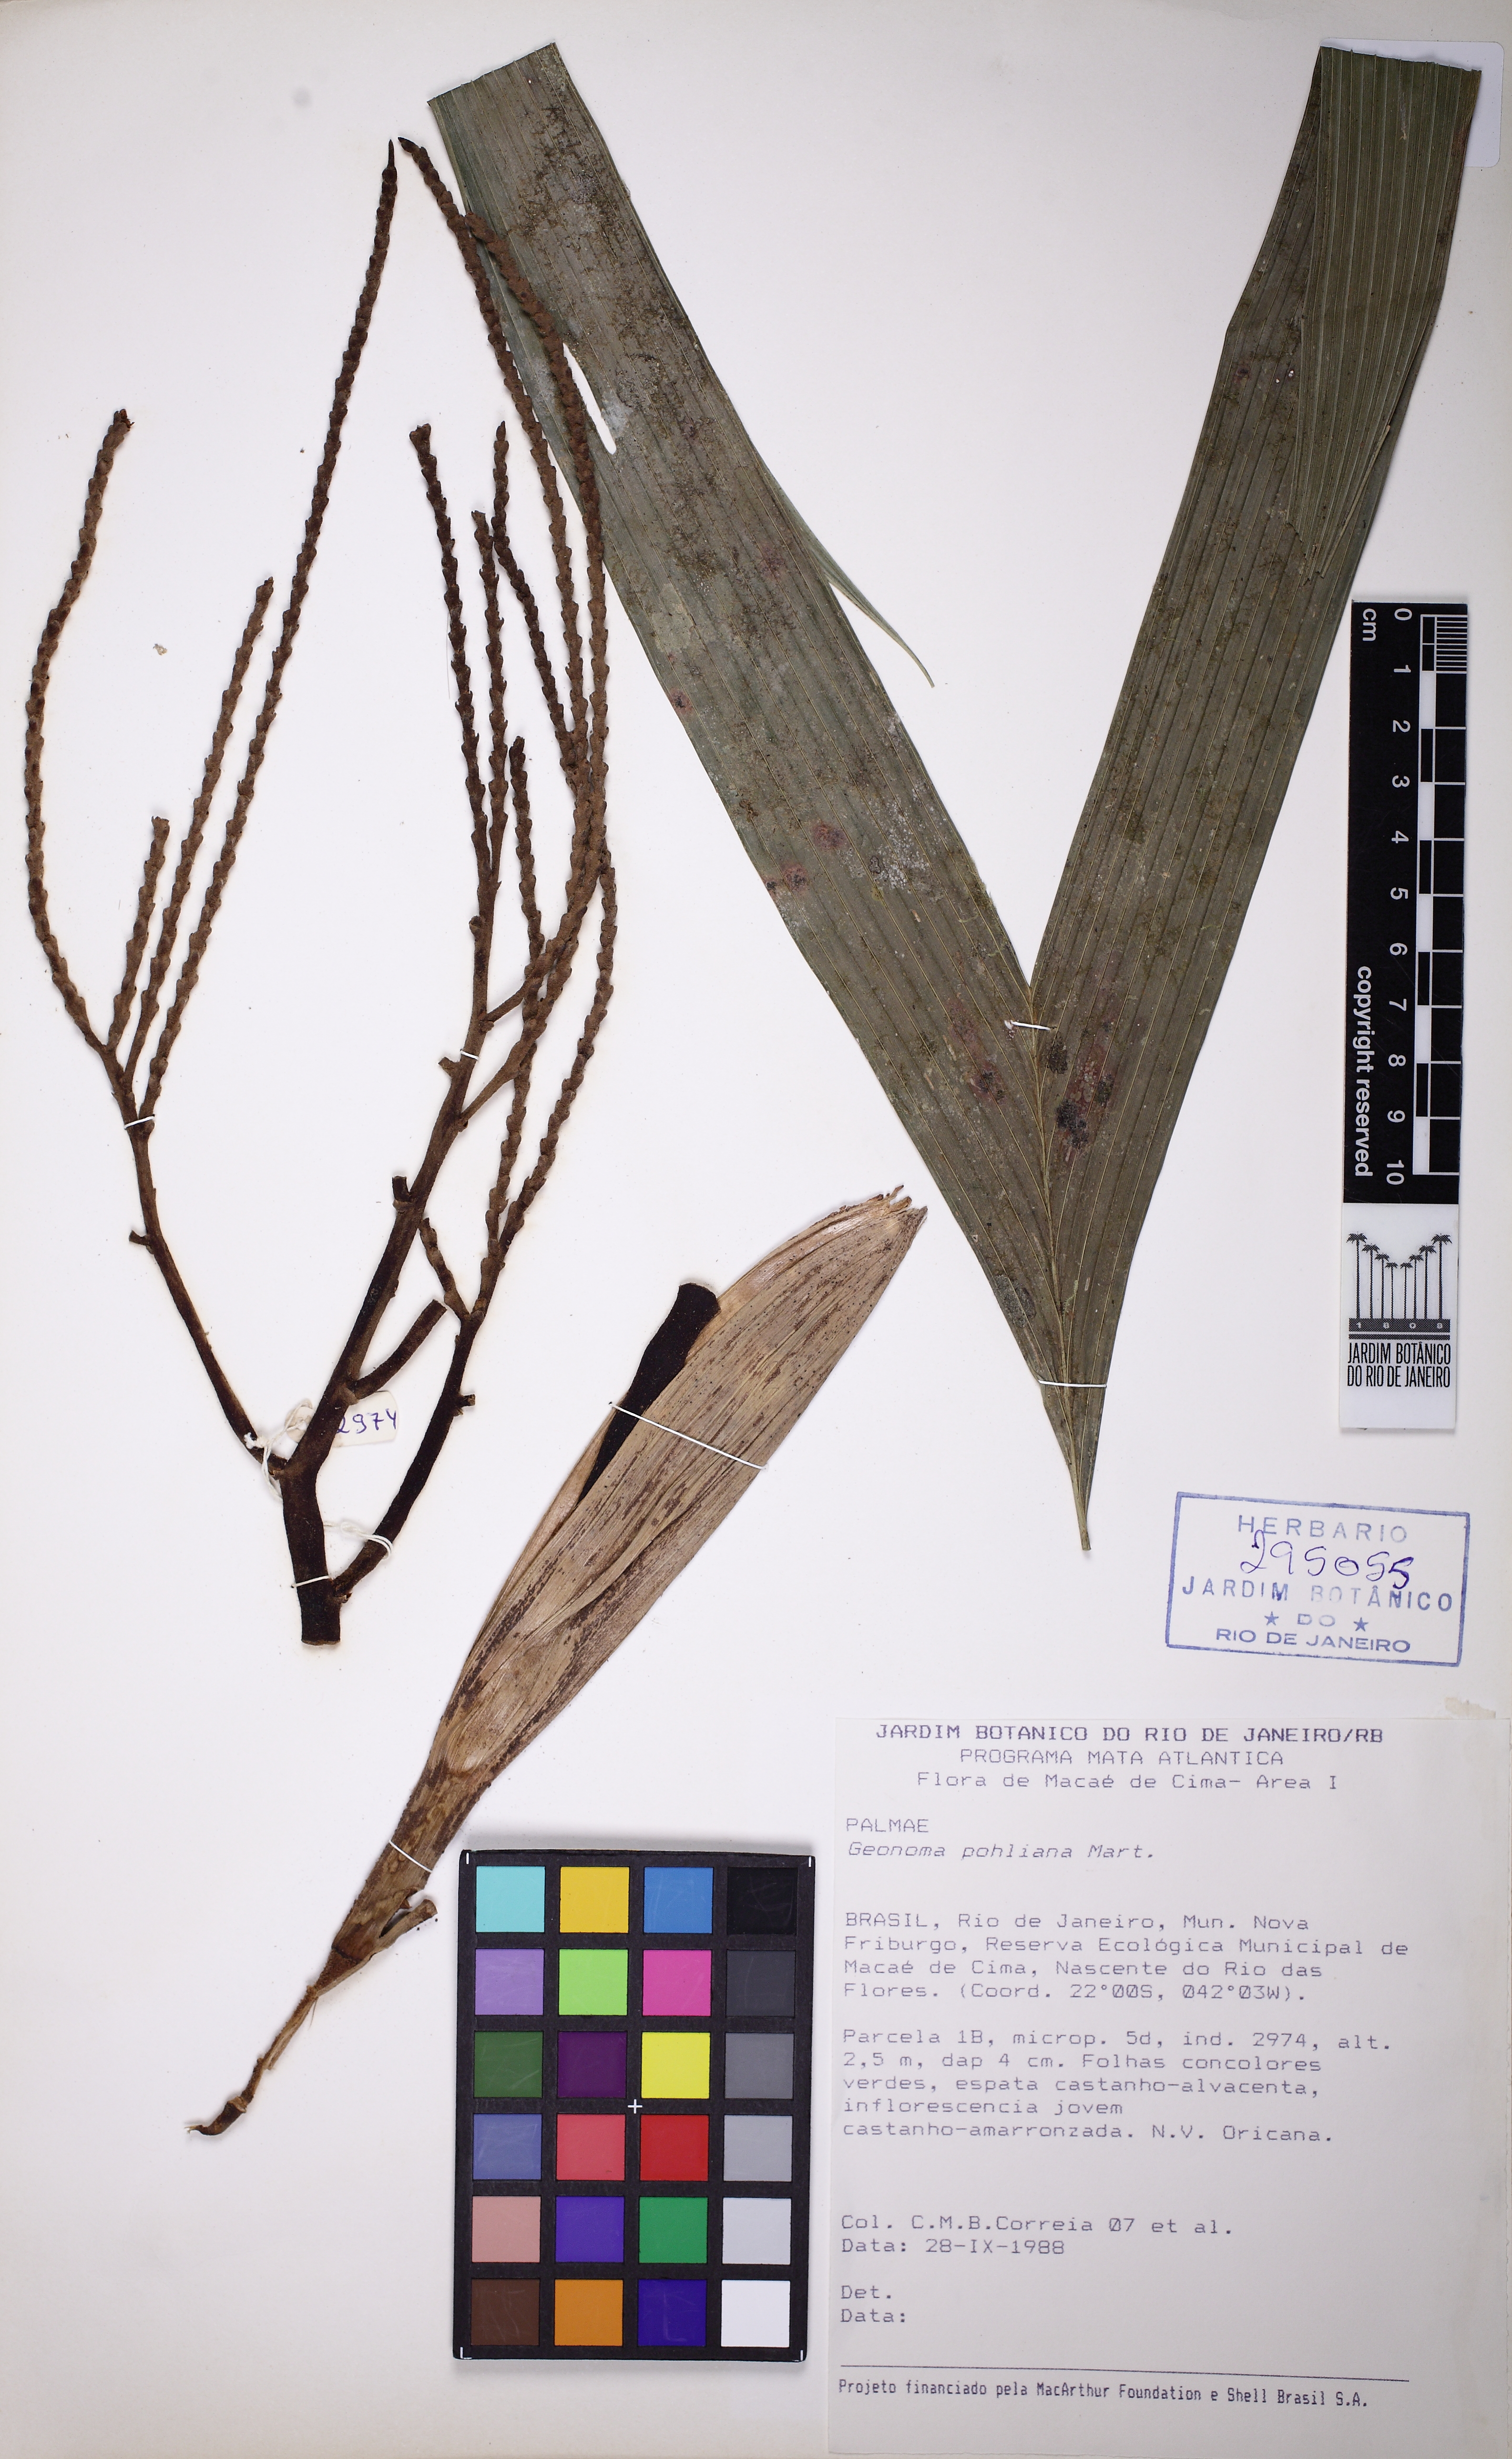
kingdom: Plantae
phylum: Tracheophyta
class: Liliopsida
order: Arecales
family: Arecaceae
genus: Geonoma
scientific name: Geonoma pohliana
